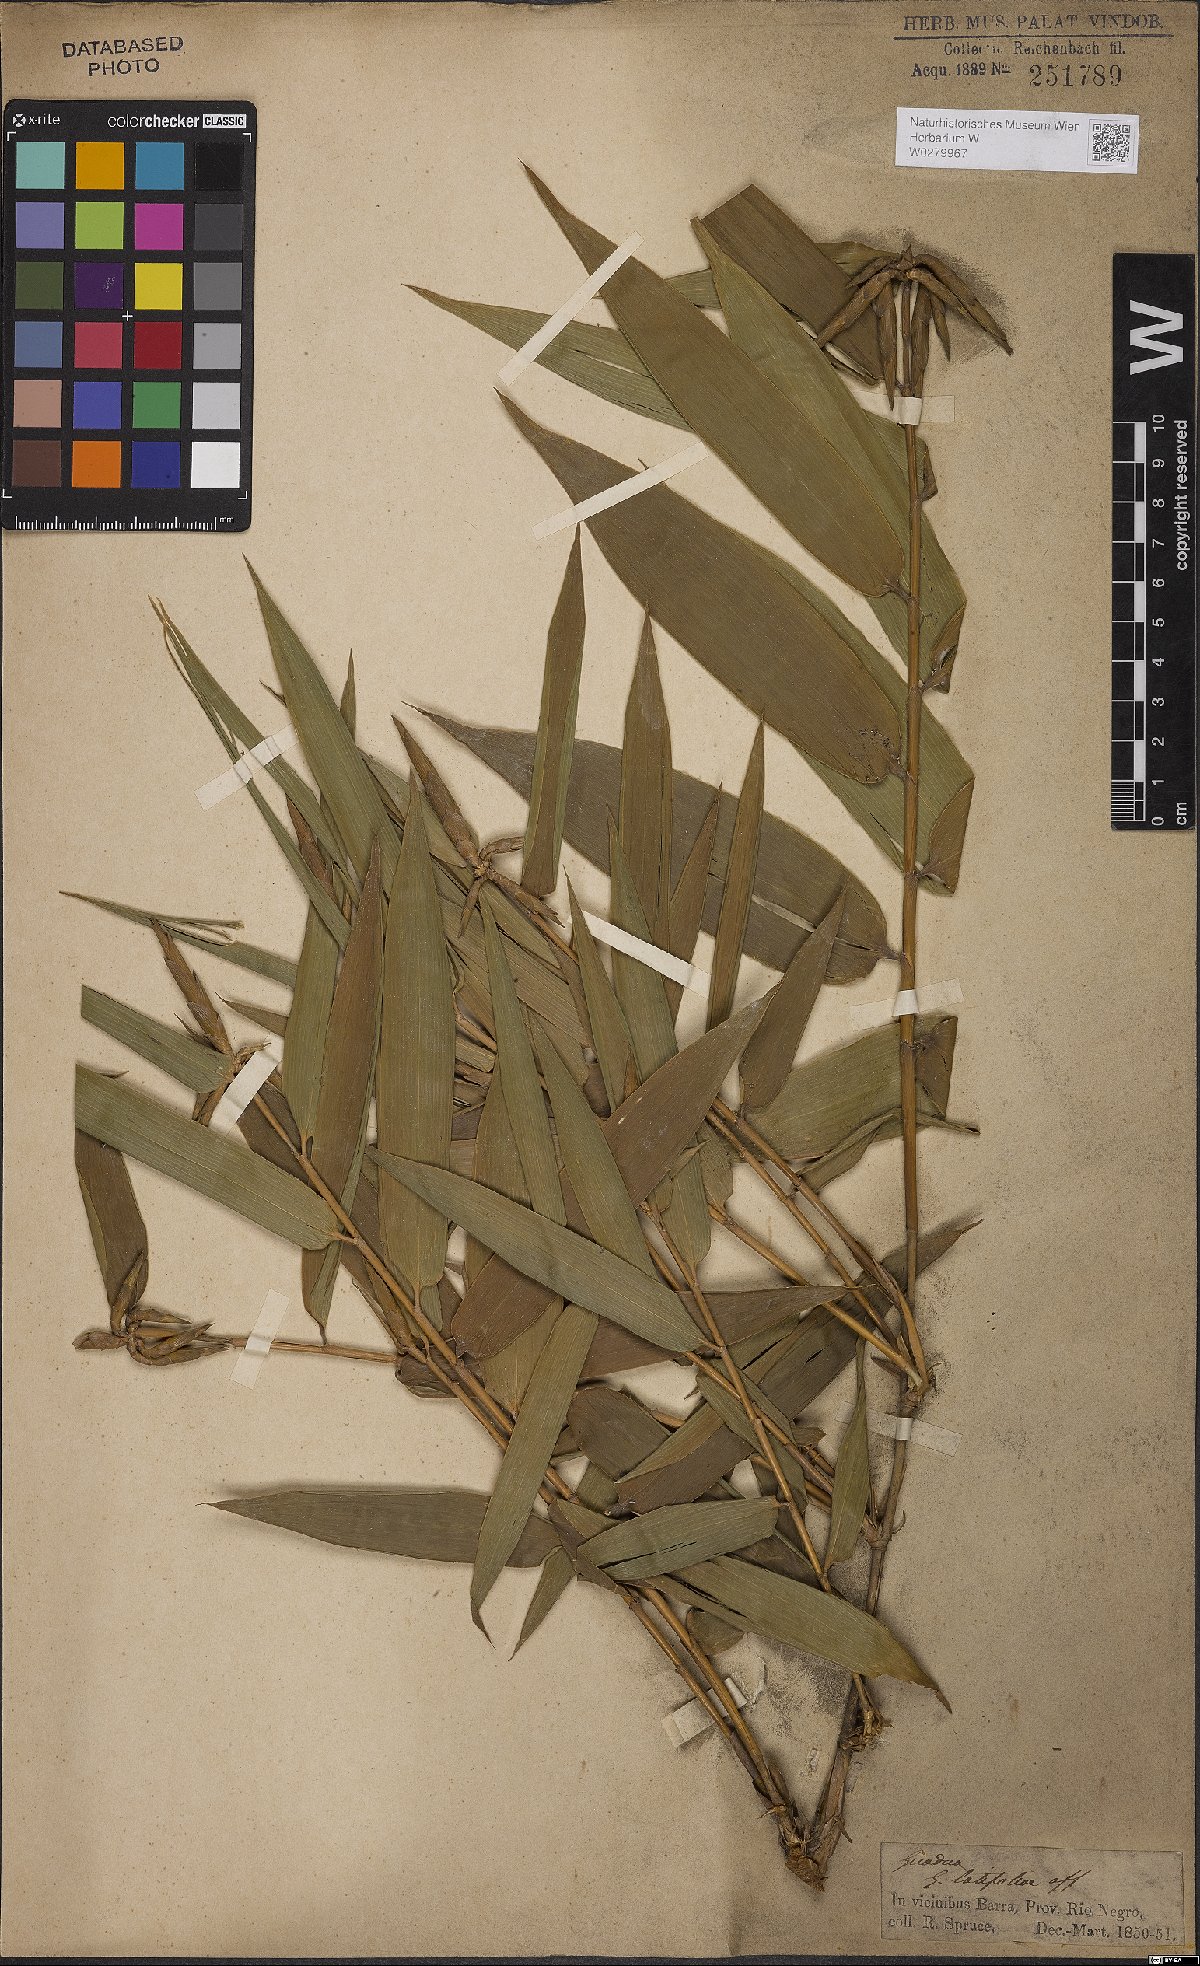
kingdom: Plantae
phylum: Tracheophyta
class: Liliopsida
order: Poales
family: Poaceae
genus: Guadua
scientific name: Guadua latifolia
